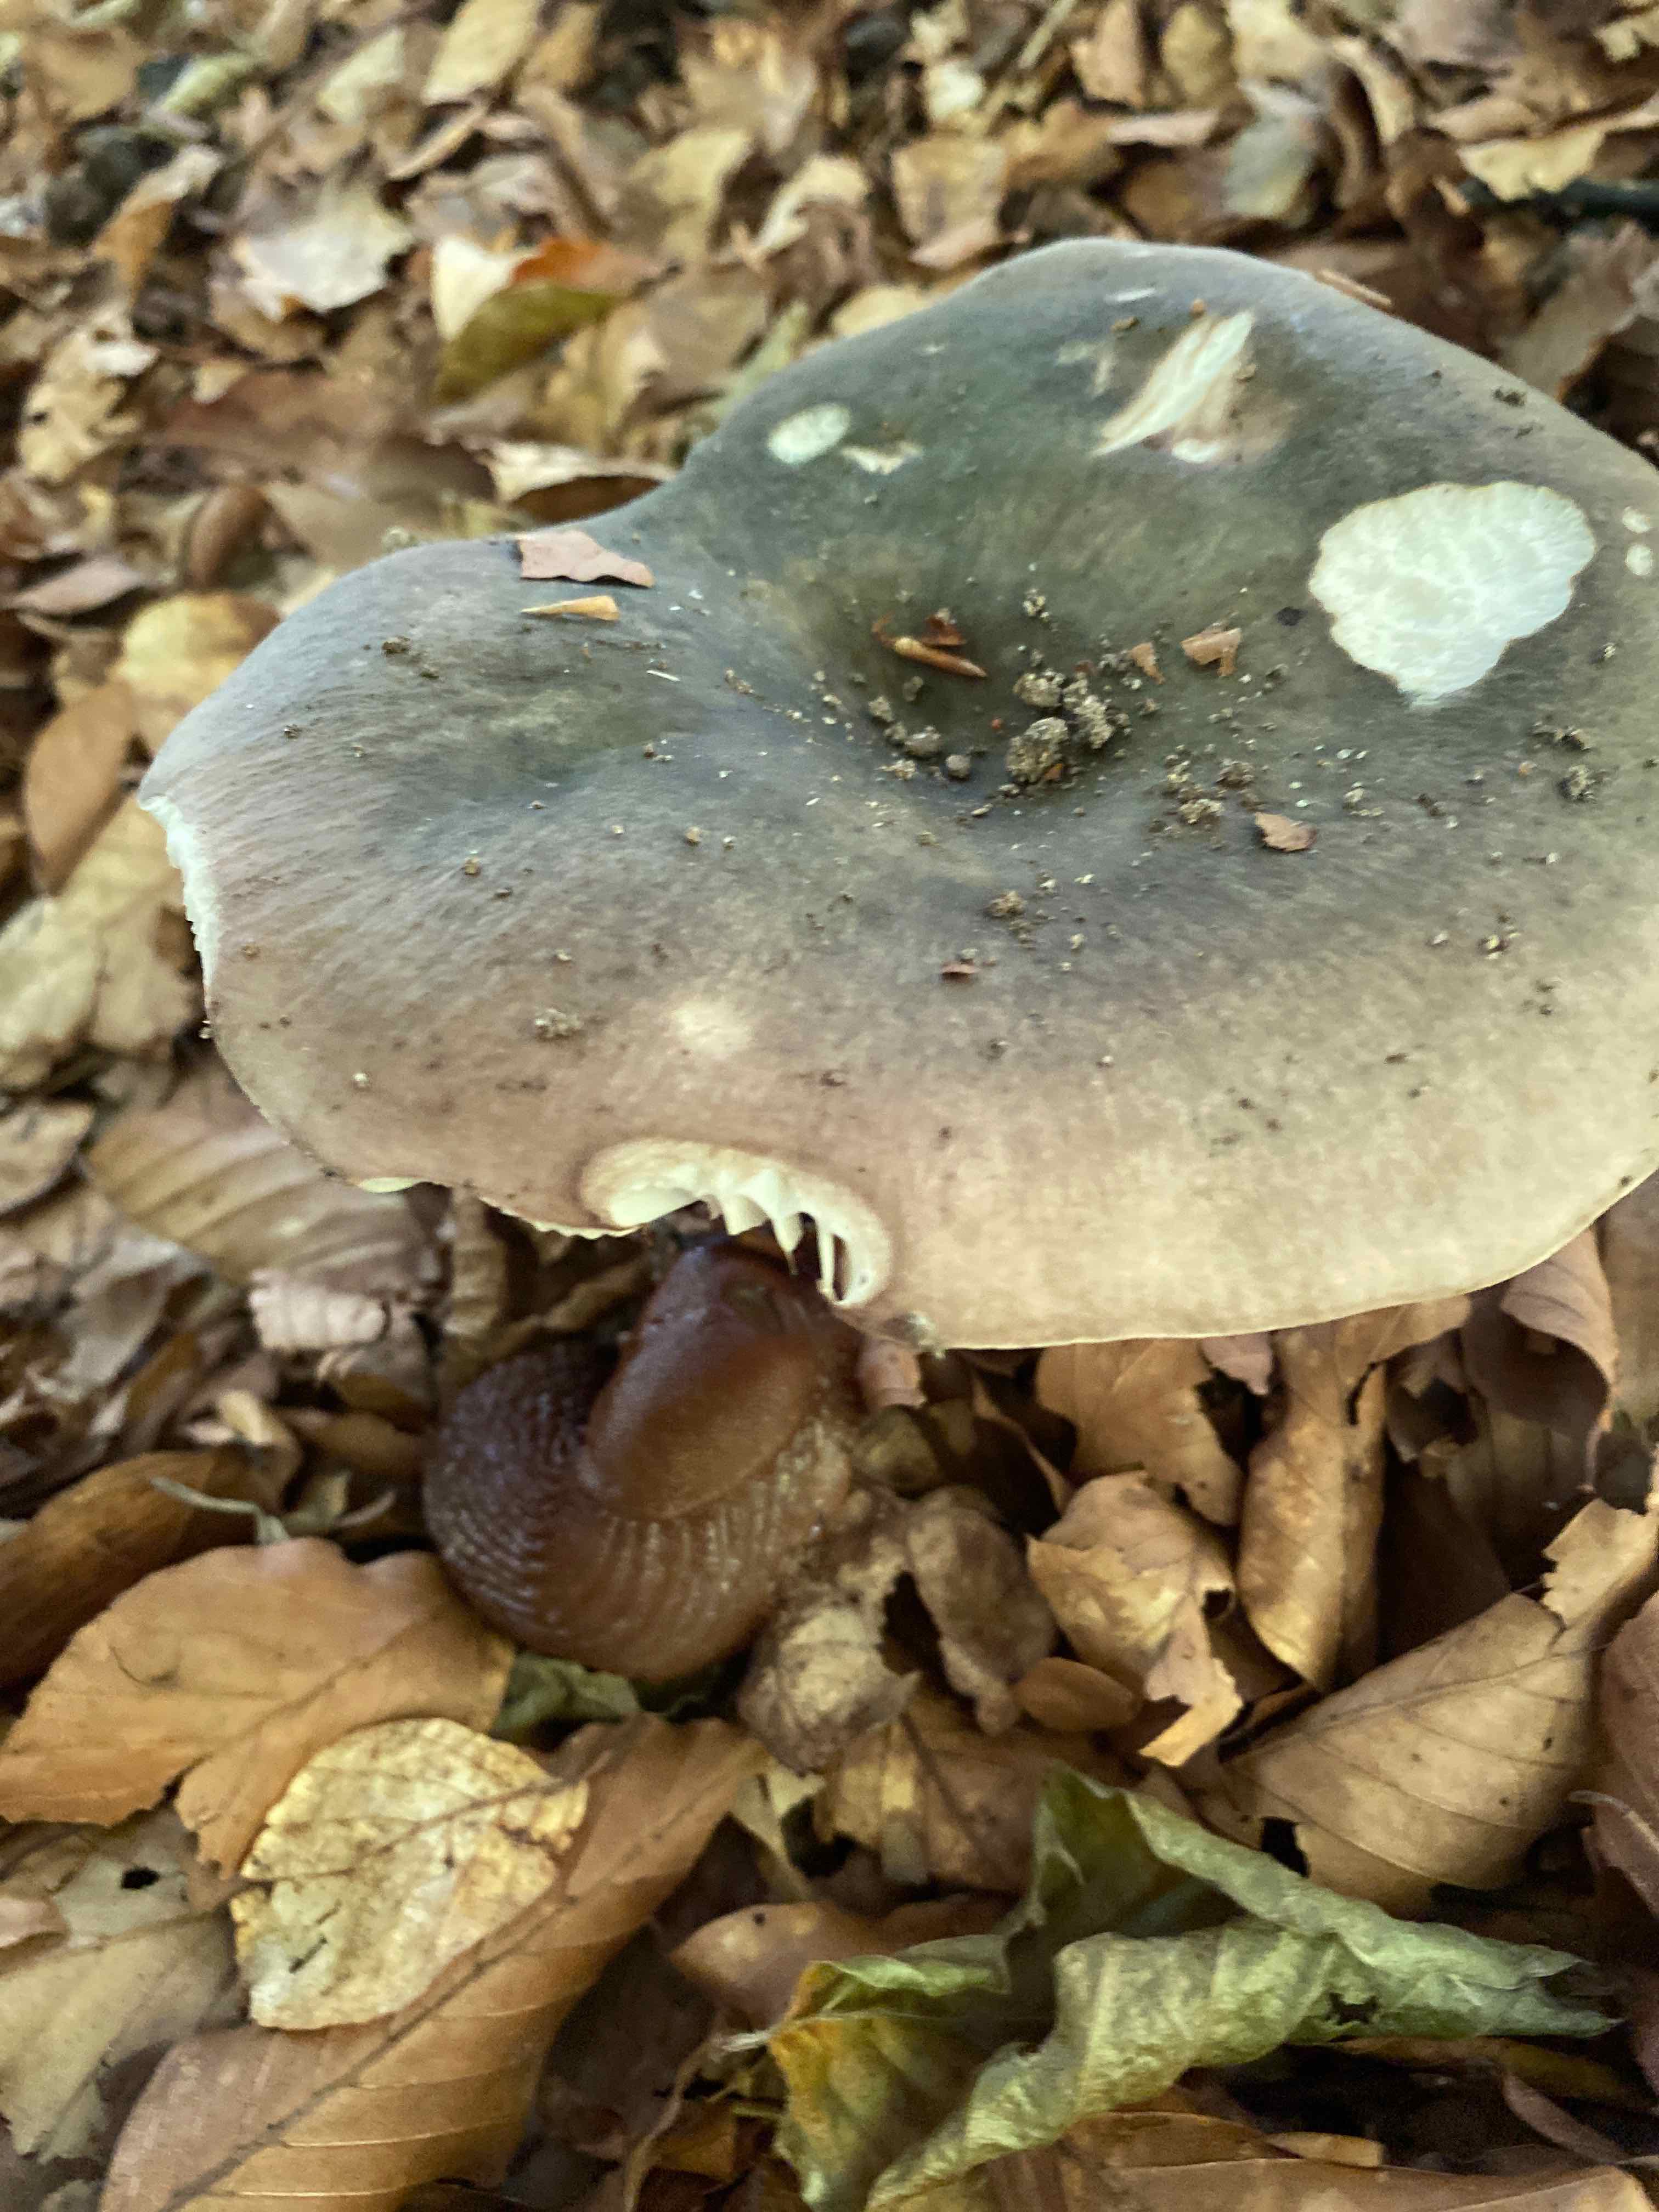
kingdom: Fungi
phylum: Basidiomycota
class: Agaricomycetes
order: Russulales
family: Russulaceae
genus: Russula
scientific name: Russula cyanoxantha
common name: broget skørhat
